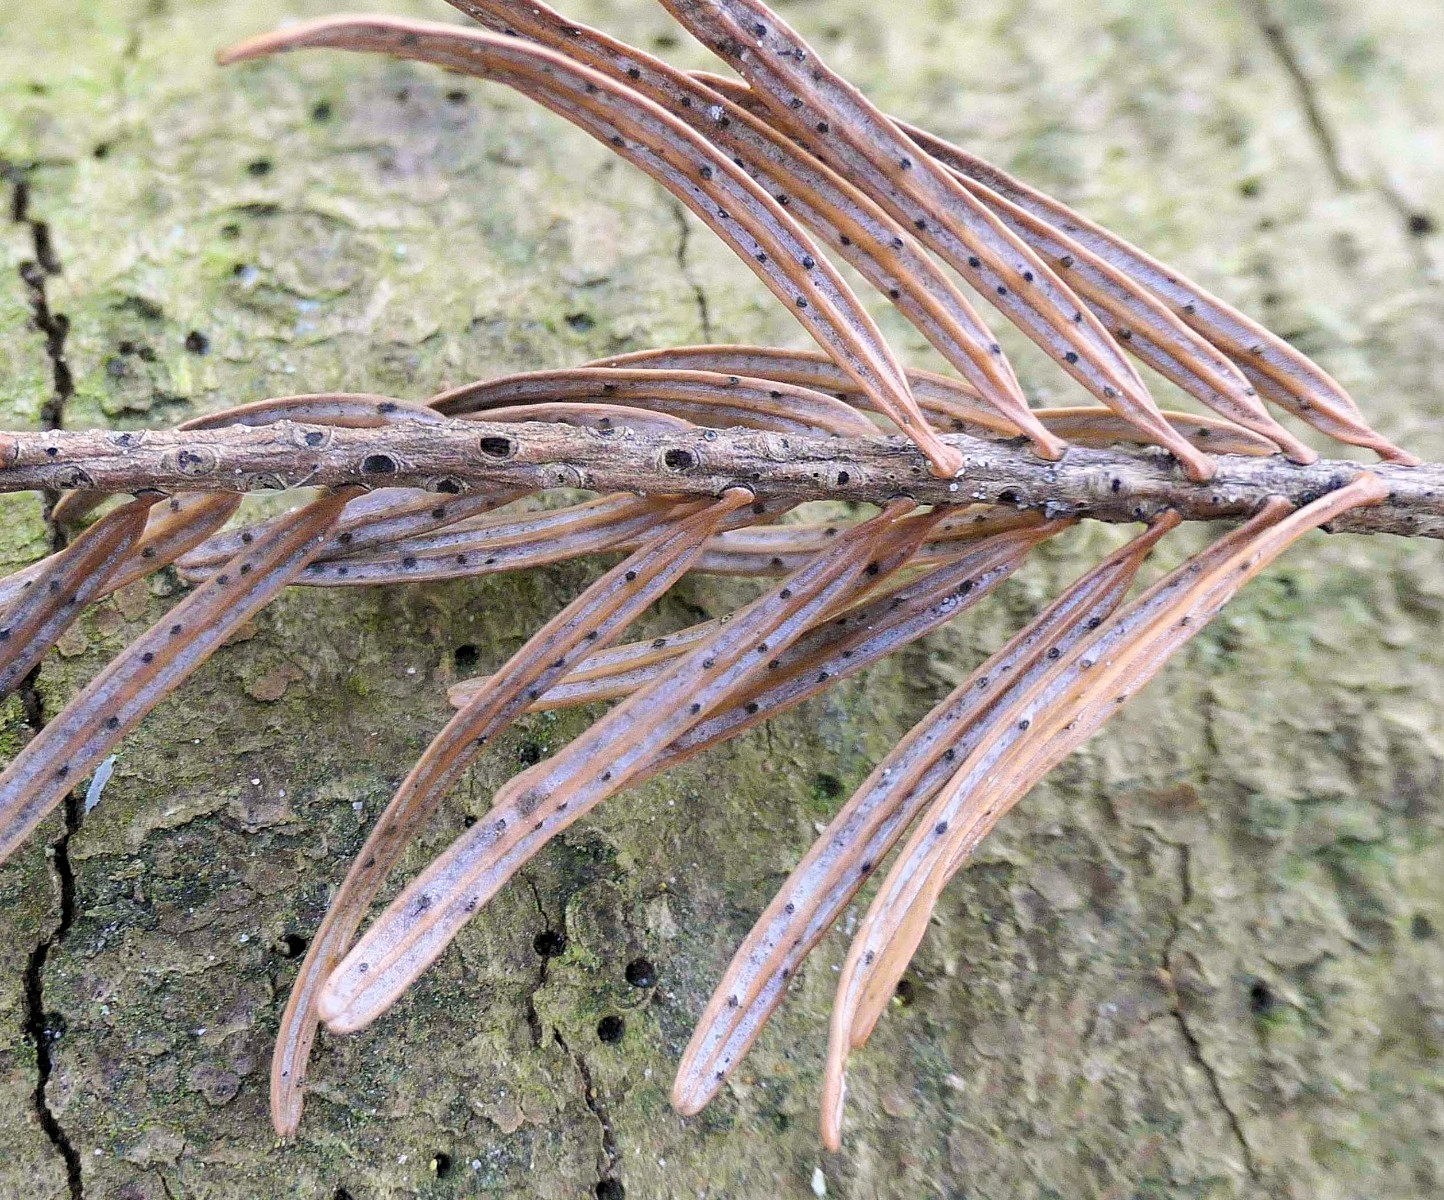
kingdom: Fungi
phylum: Ascomycota
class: Leotiomycetes
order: Helotiales
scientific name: Helotiales
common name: stilkskiveordenen
